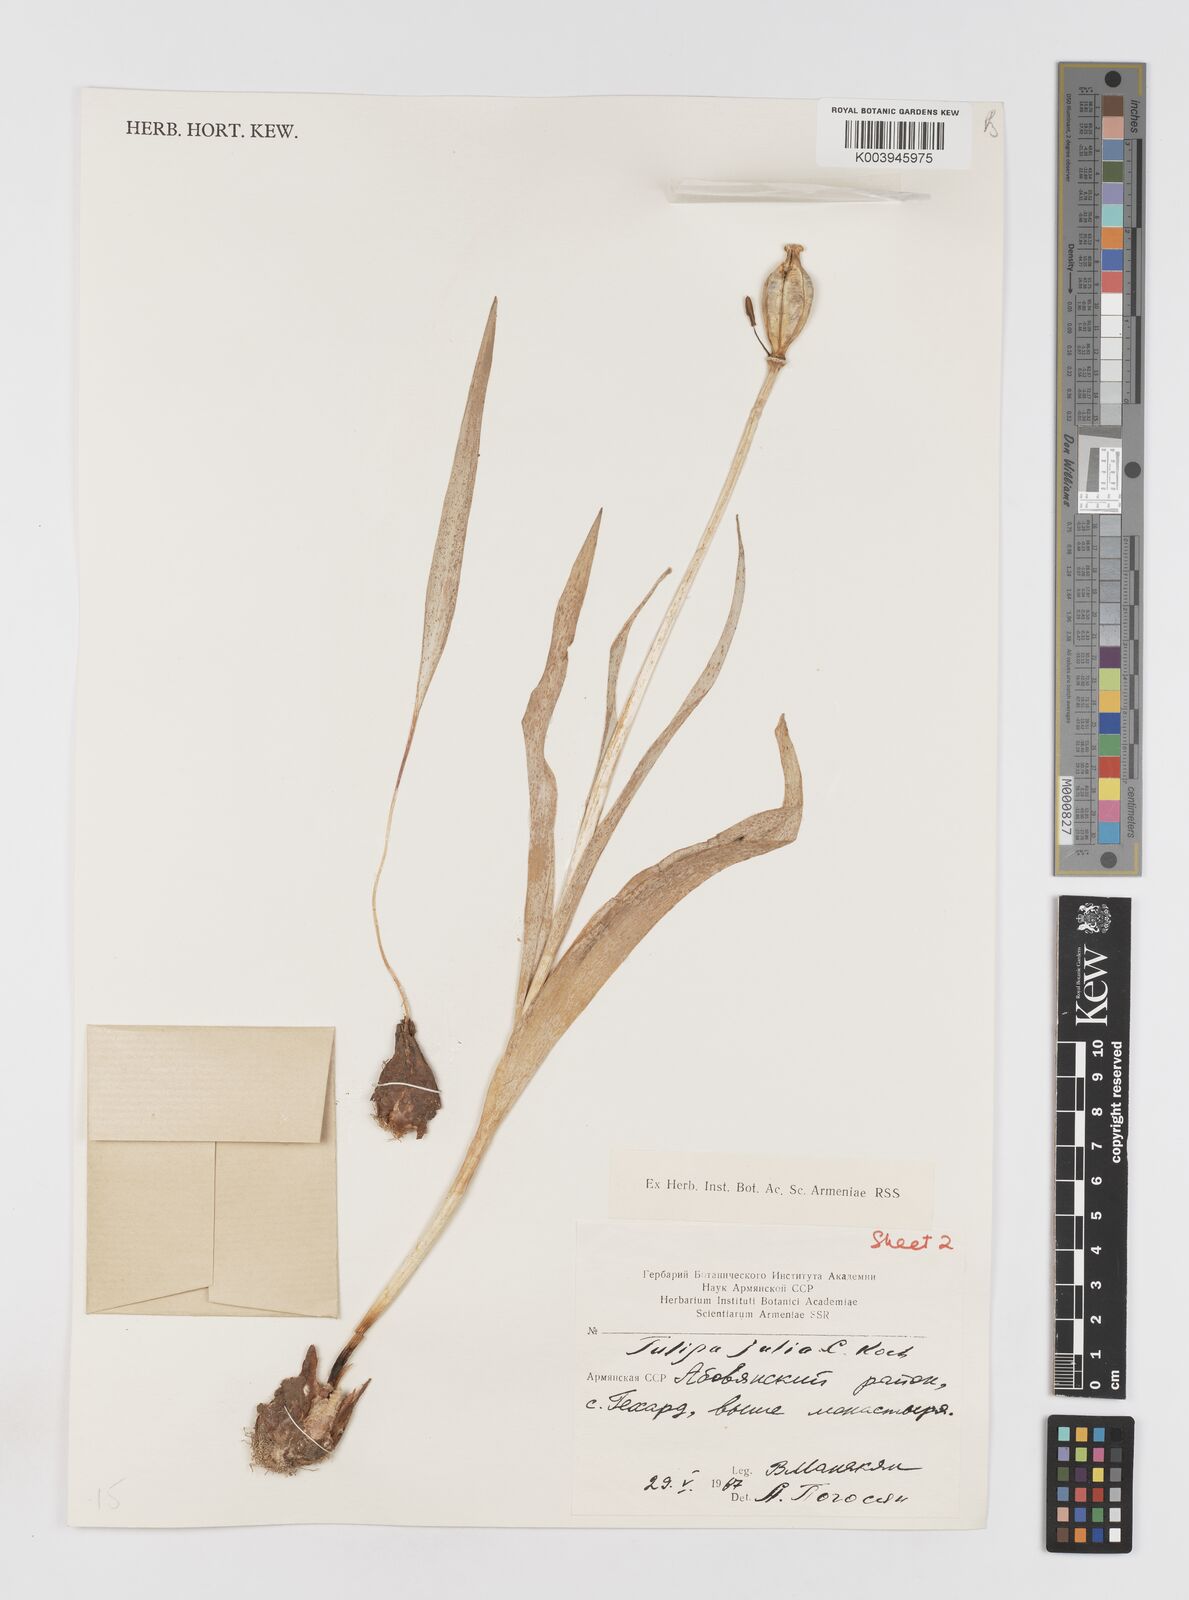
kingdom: Plantae
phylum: Tracheophyta
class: Liliopsida
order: Liliales
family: Liliaceae
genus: Tulipa
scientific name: Tulipa julia
